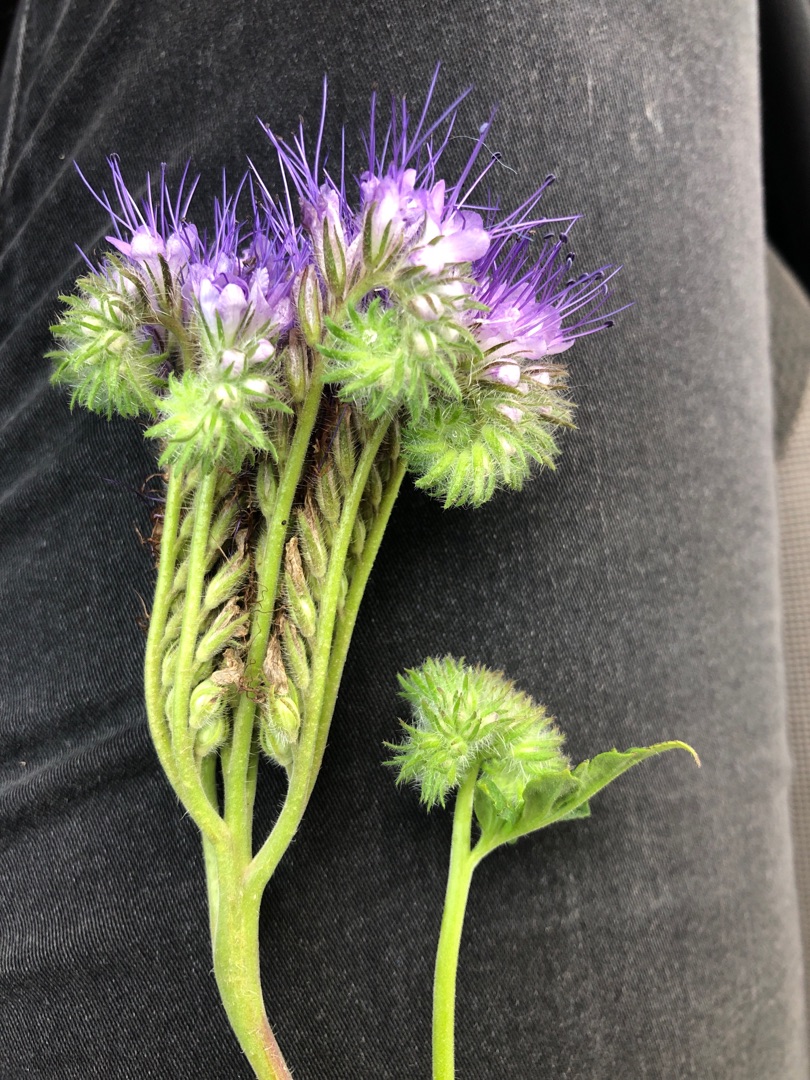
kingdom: Plantae
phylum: Tracheophyta
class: Magnoliopsida
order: Boraginales
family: Hydrophyllaceae
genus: Phacelia
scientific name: Phacelia tanacetifolia
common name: Honningurt
